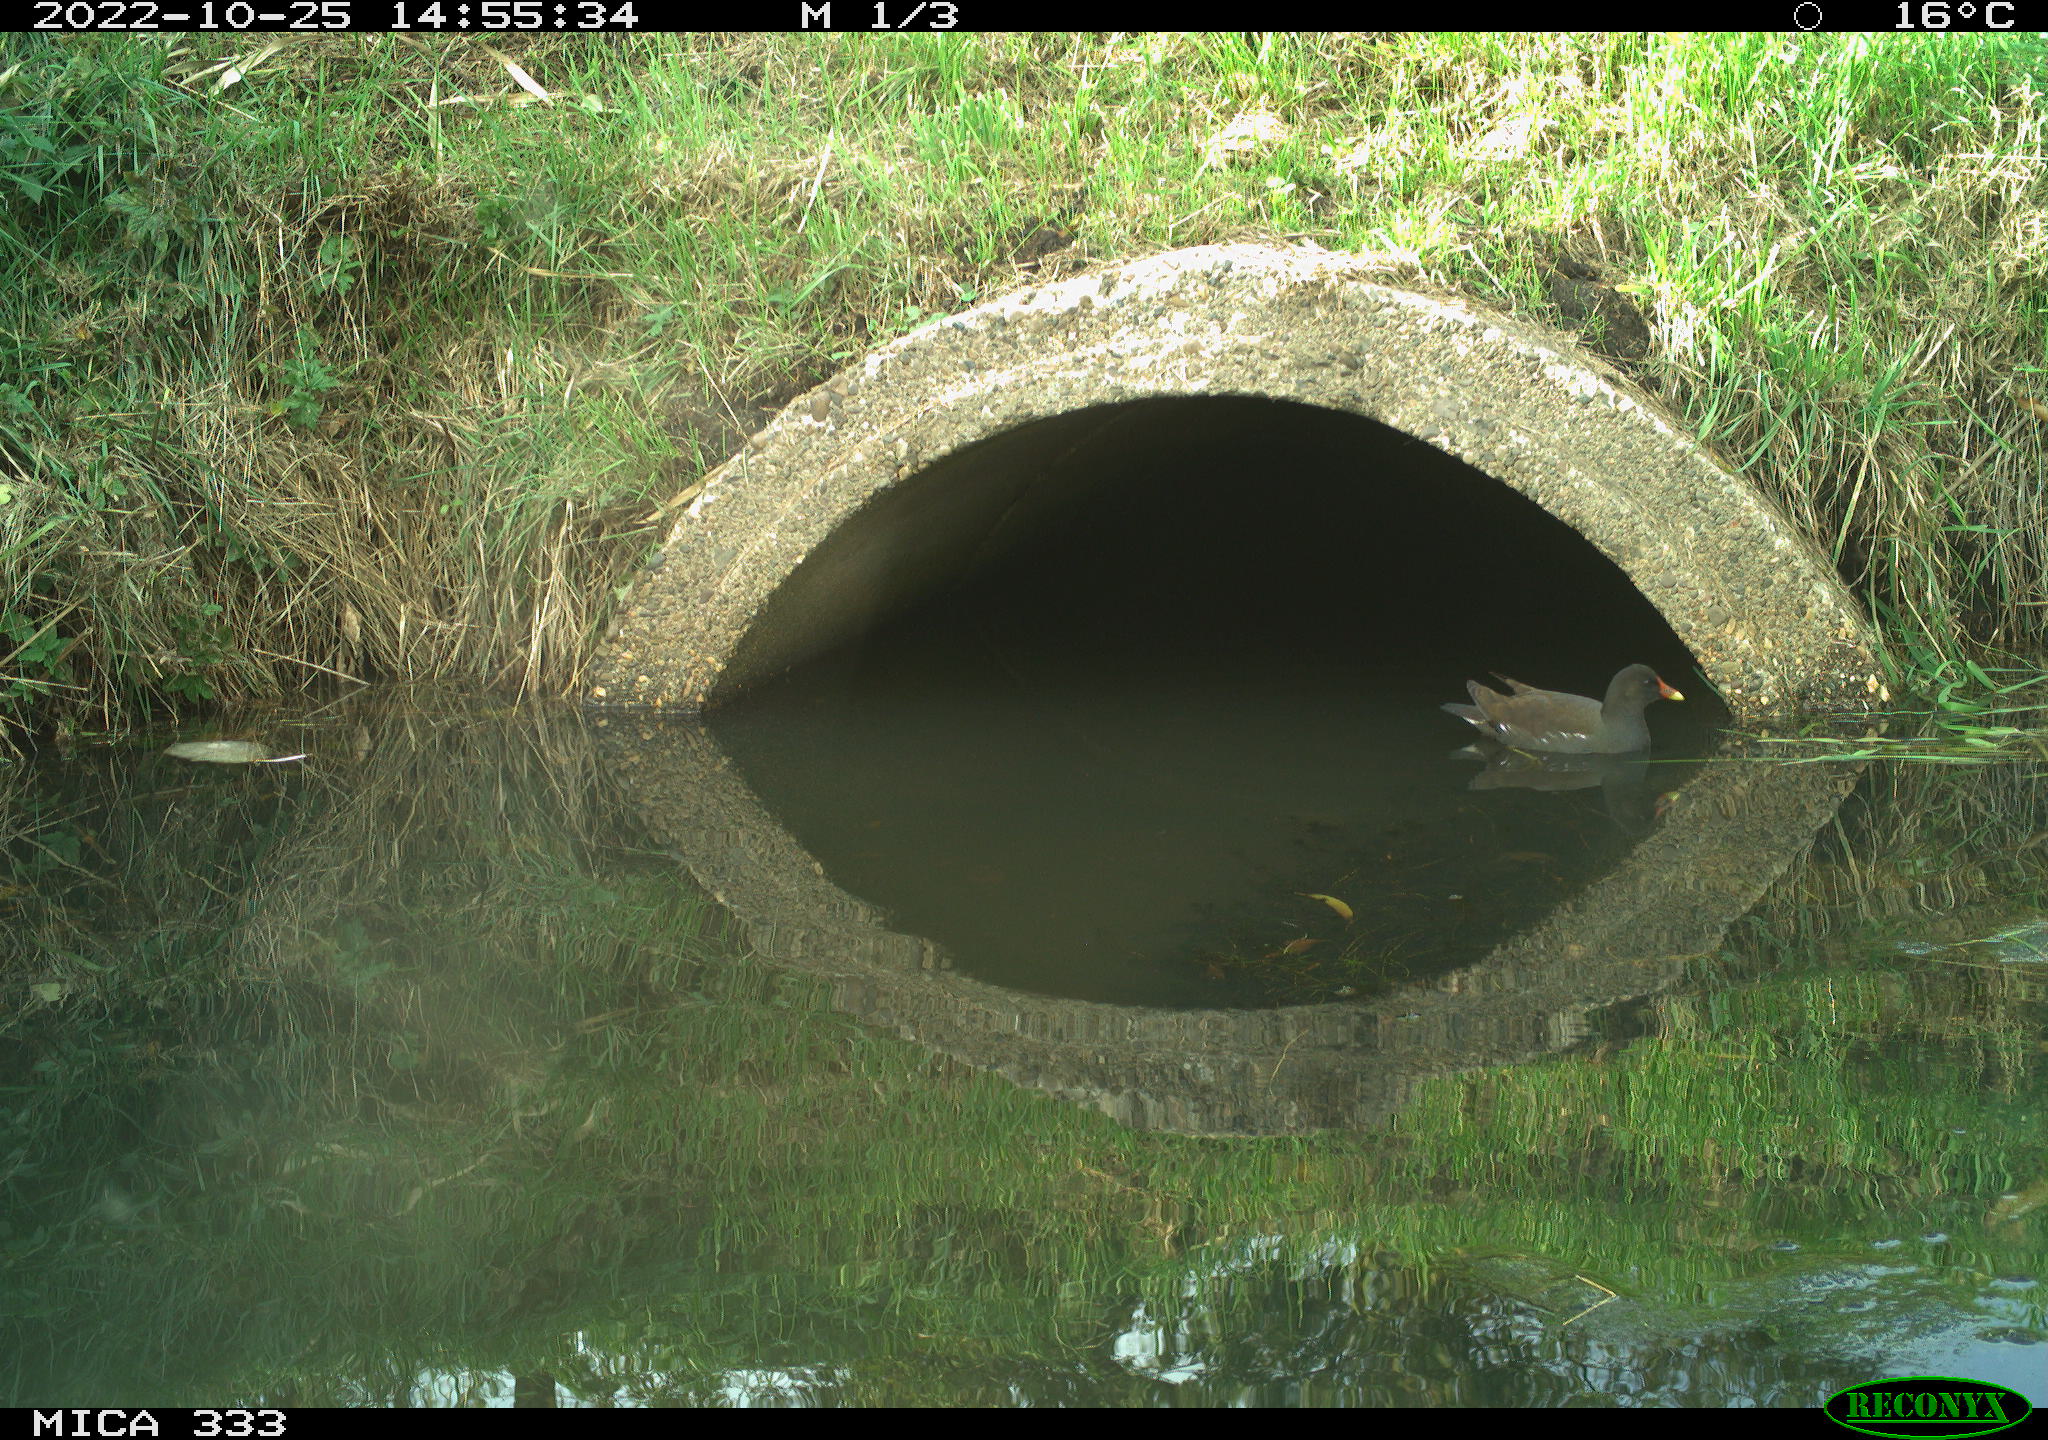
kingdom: Animalia
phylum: Chordata
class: Aves
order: Gruiformes
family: Rallidae
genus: Gallinula
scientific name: Gallinula chloropus
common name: Common moorhen
